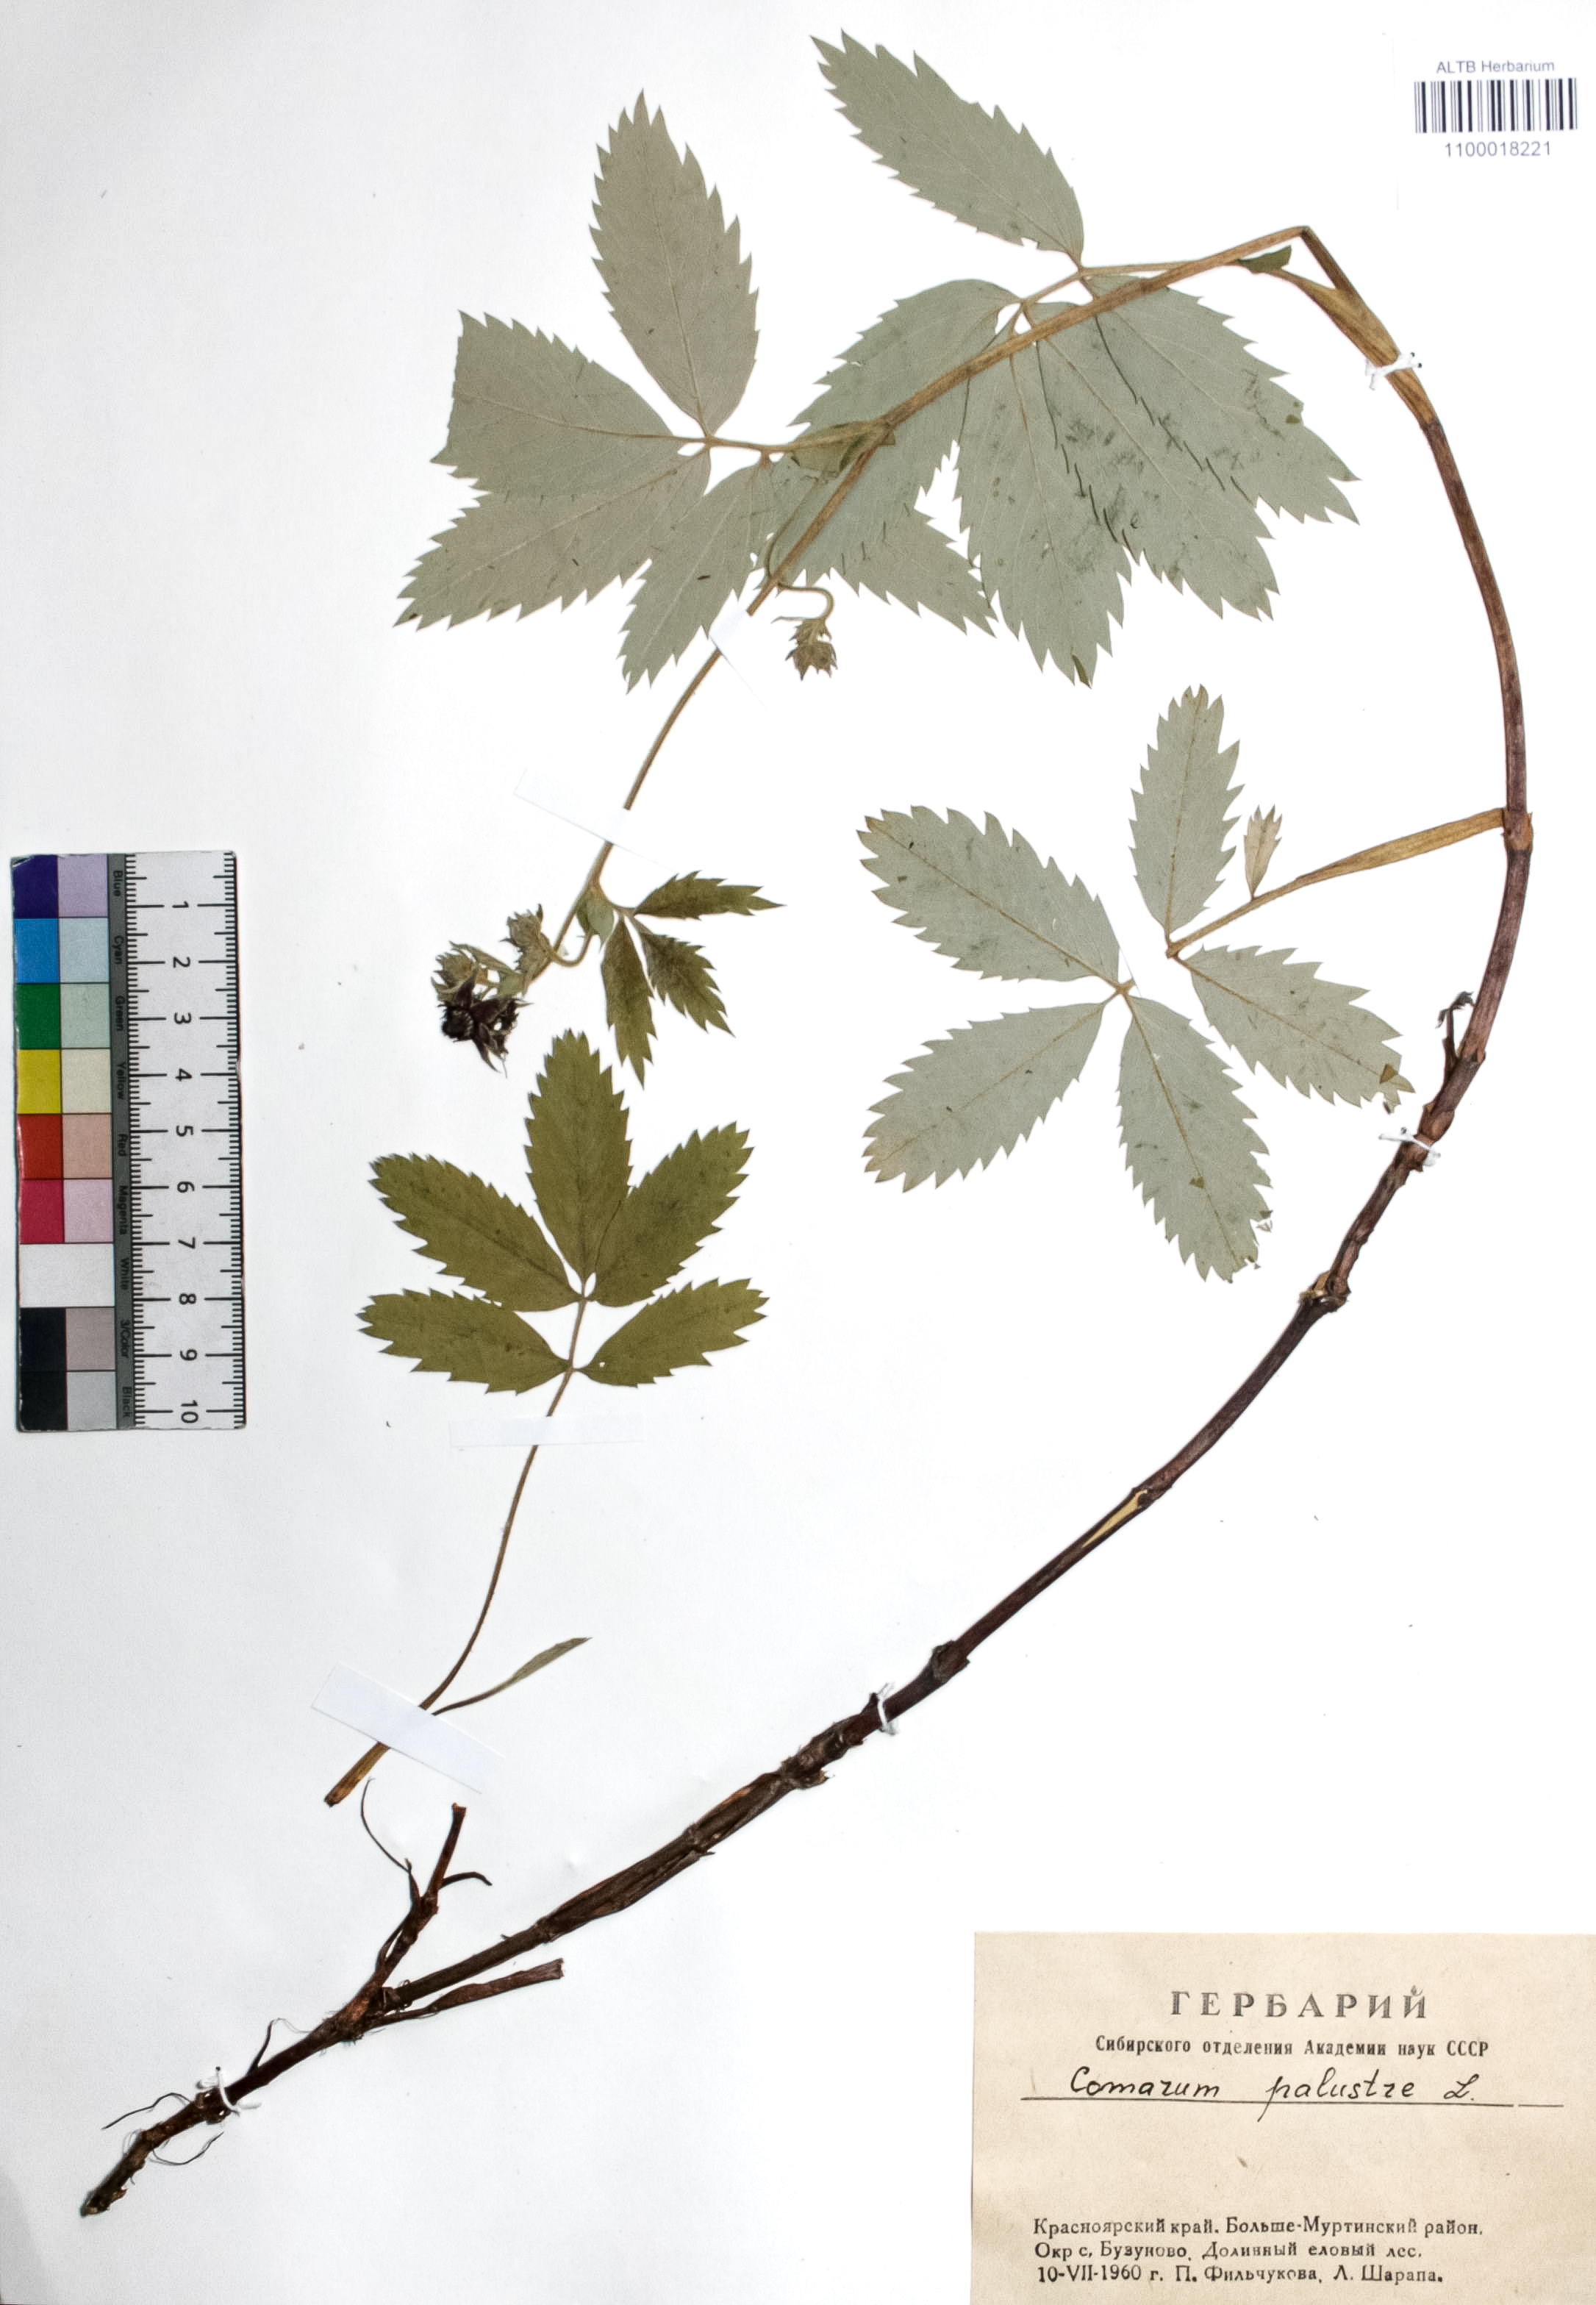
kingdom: Plantae
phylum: Tracheophyta
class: Magnoliopsida
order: Rosales
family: Rosaceae
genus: Comarum
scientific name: Comarum palustre
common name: Marsh cinquefoil
